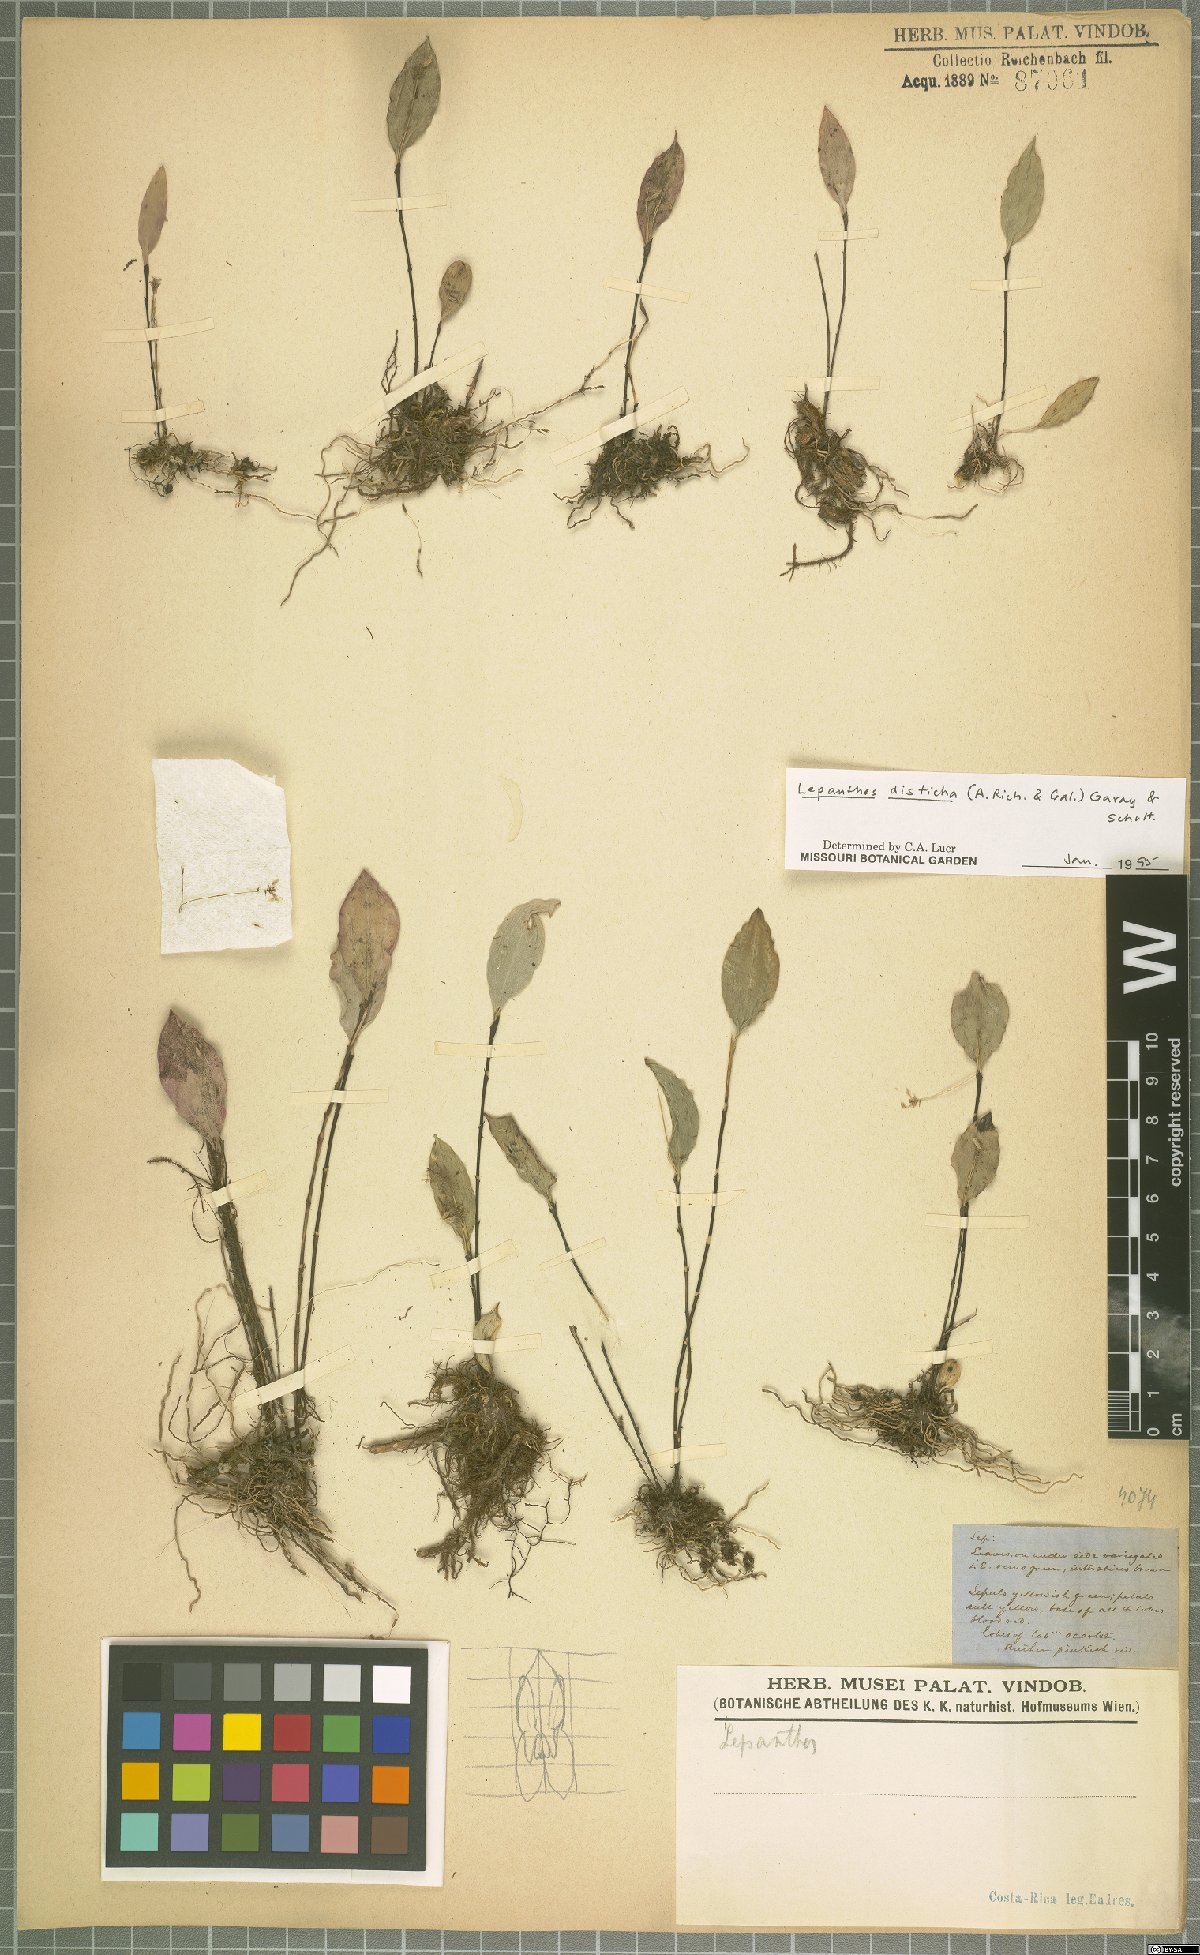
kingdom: Plantae
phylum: Tracheophyta
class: Liliopsida
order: Asparagales
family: Orchidaceae
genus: Lepanthes
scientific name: Lepanthes disticha
